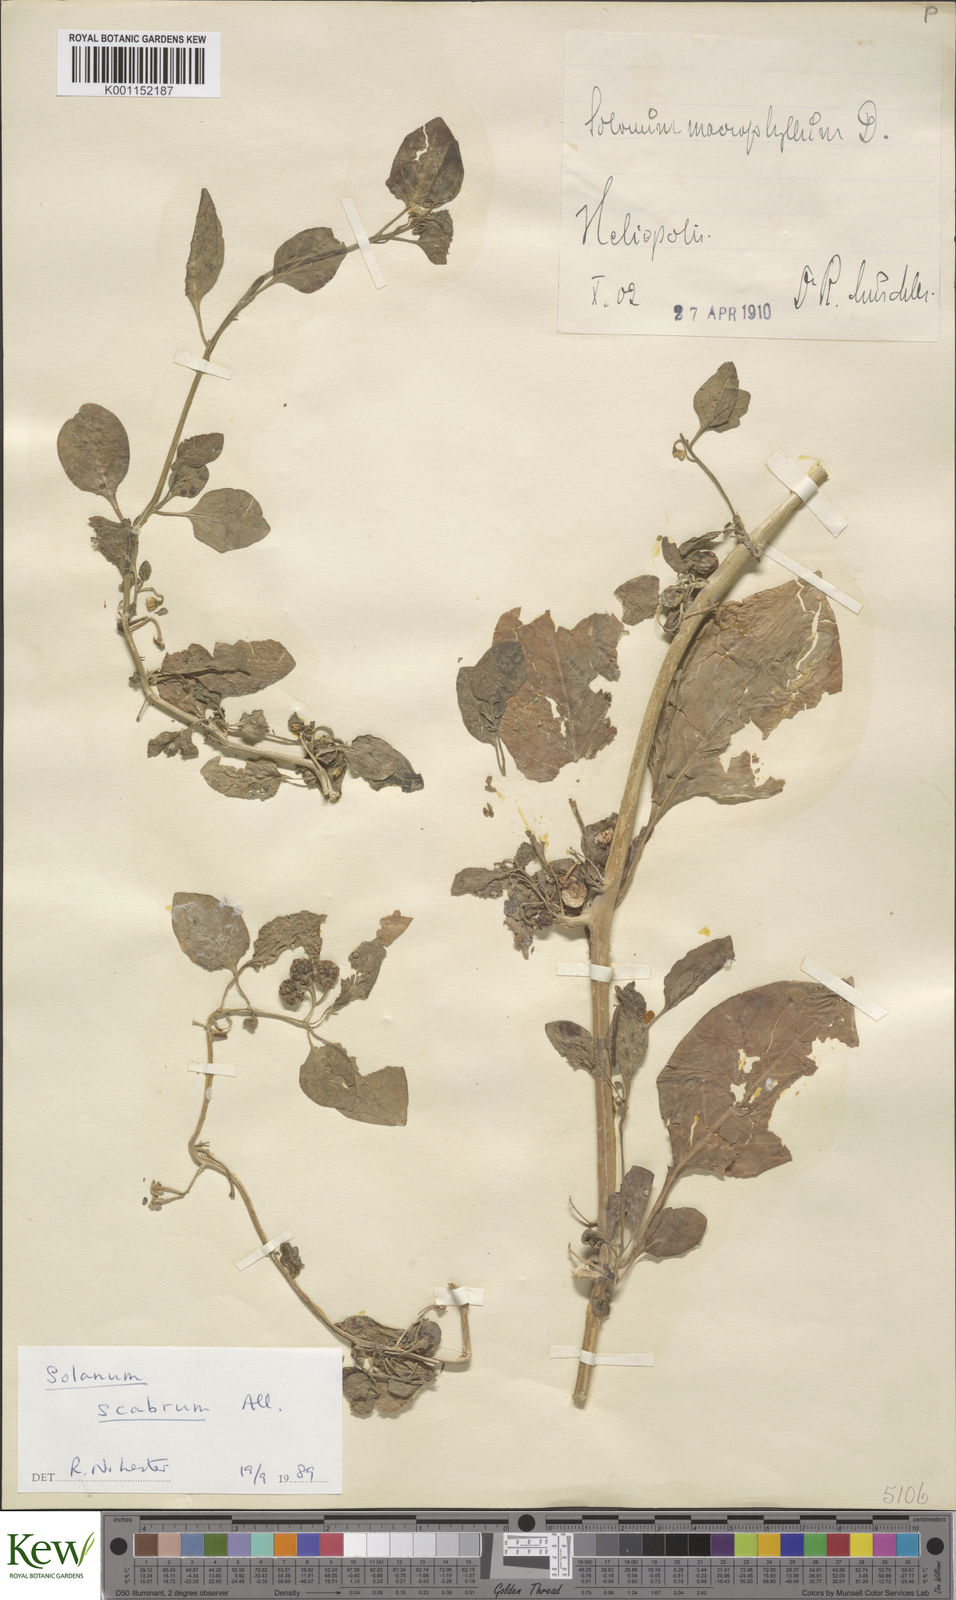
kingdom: Plantae
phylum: Tracheophyta
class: Magnoliopsida
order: Solanales
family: Solanaceae
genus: Solanum
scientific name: Solanum scabrum
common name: Garden-huckleberry
